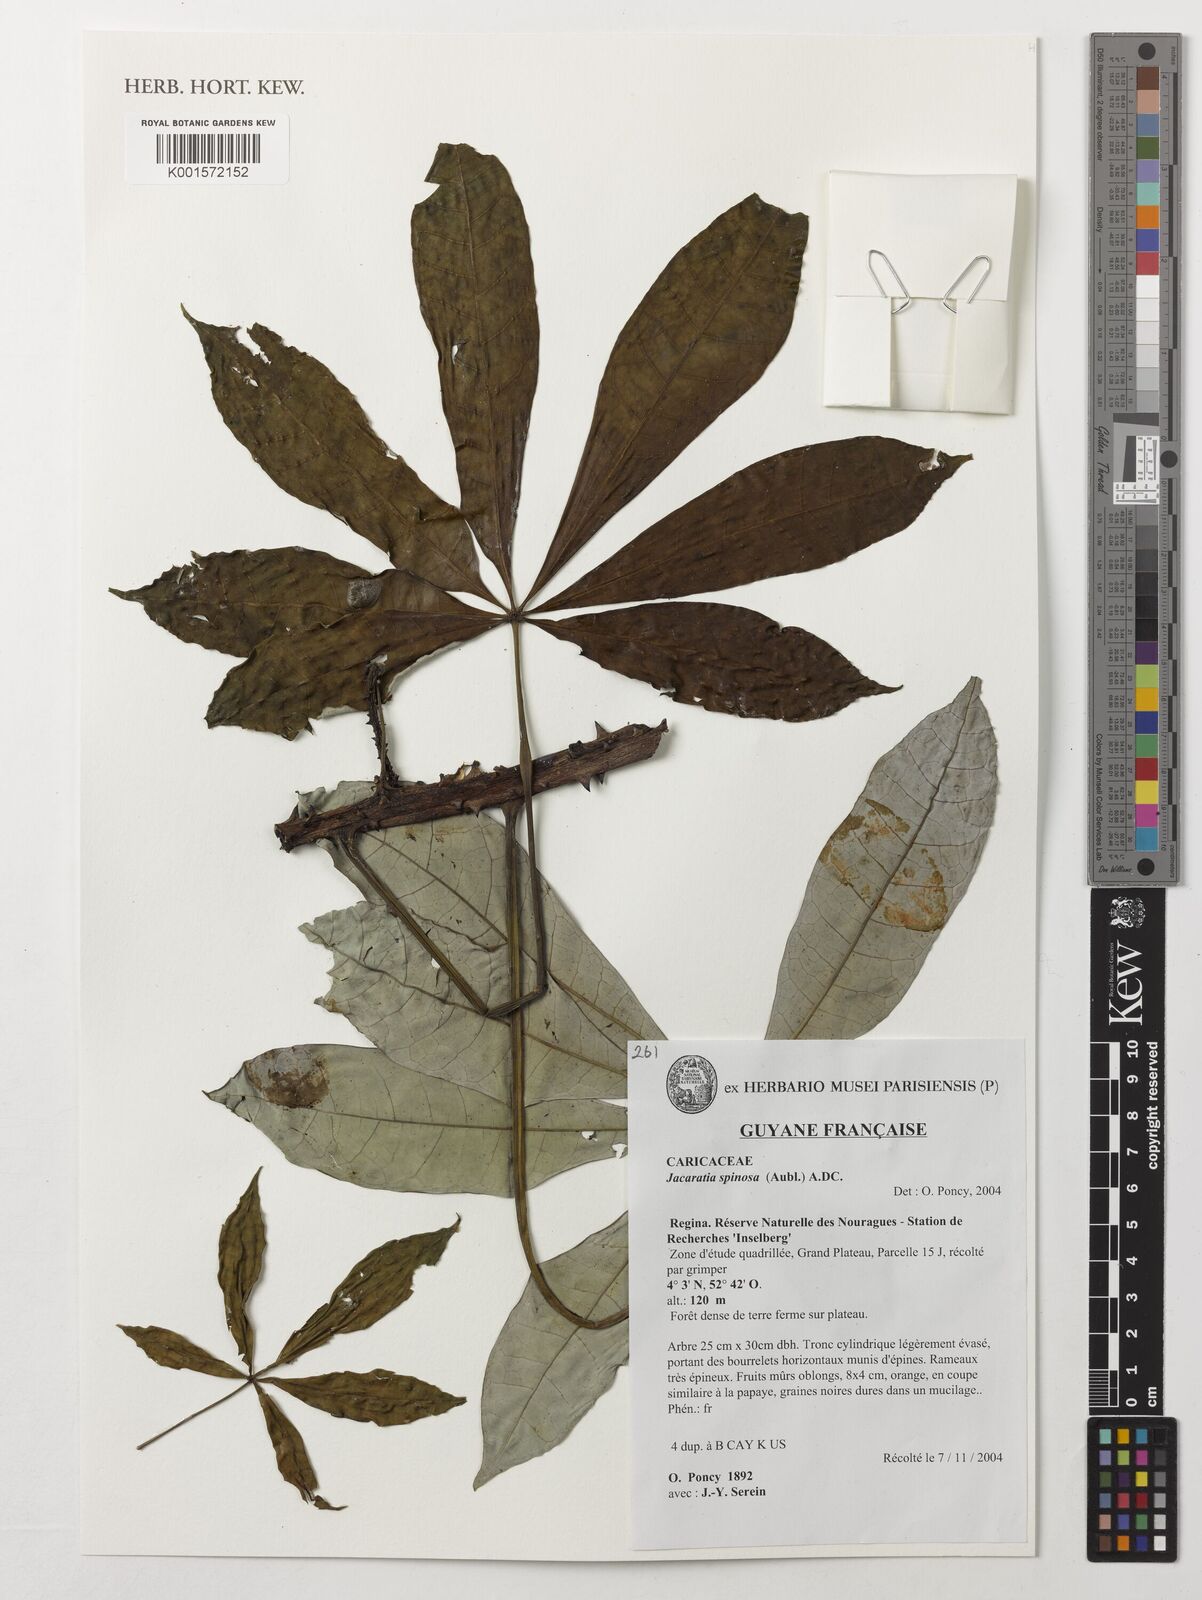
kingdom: Plantae
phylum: Tracheophyta
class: Magnoliopsida
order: Brassicales
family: Caricaceae
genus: Jacaratia
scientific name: Jacaratia spinosa
